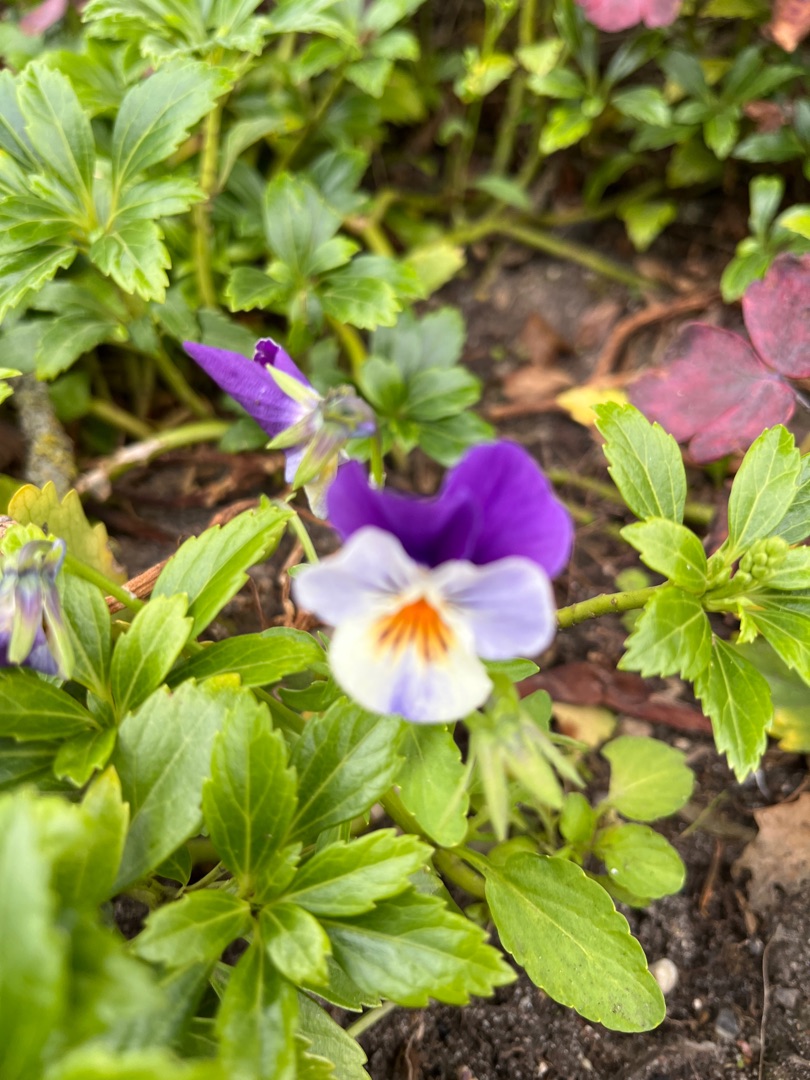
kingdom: Plantae
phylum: Tracheophyta
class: Magnoliopsida
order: Malpighiales
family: Violaceae
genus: Viola
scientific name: Viola wittrockiana
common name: Have-stedmoderblomst
